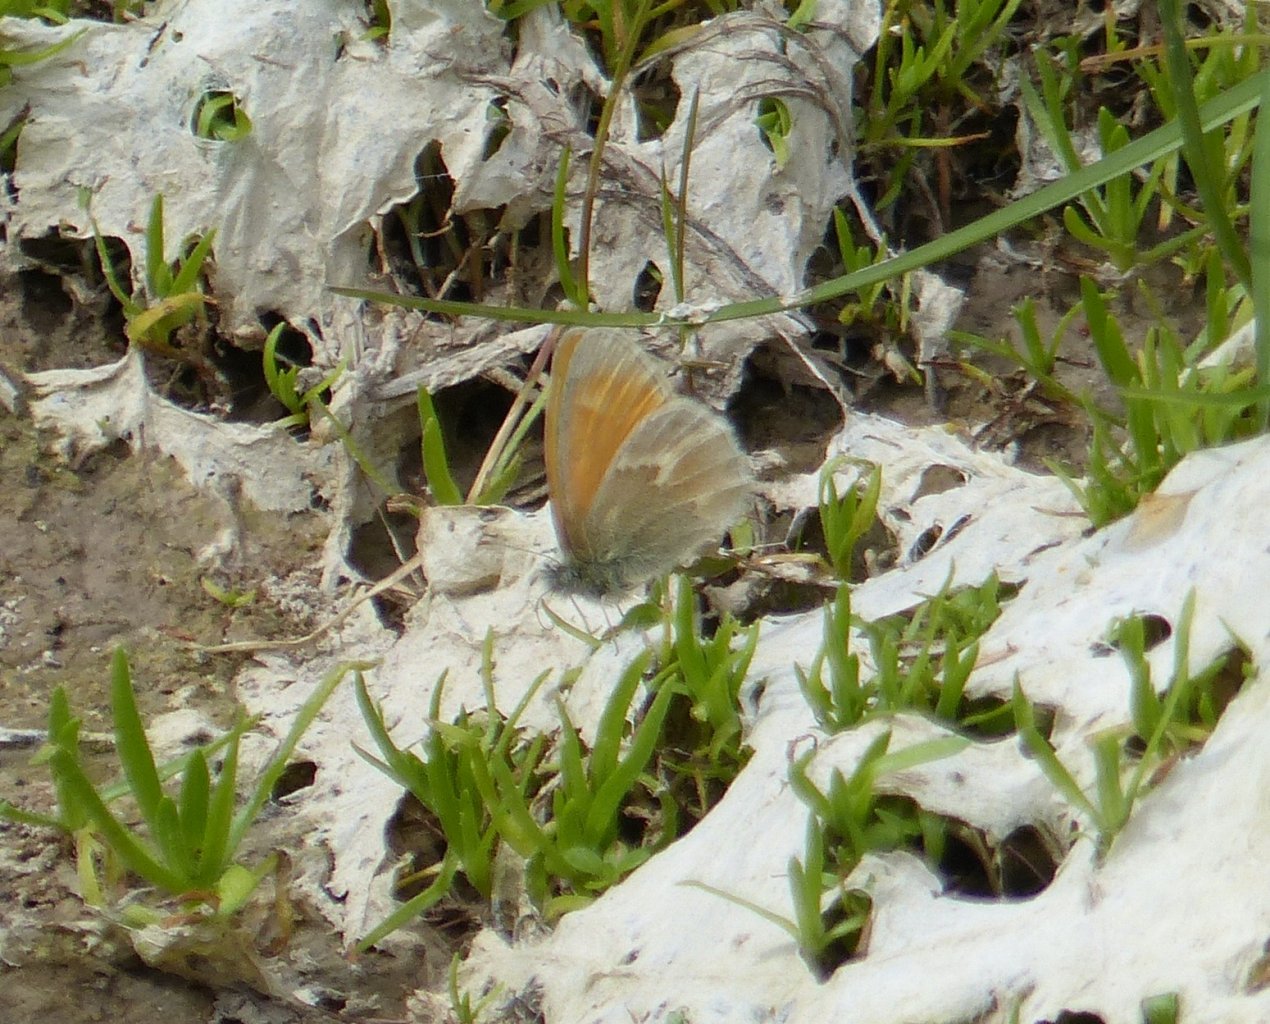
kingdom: Animalia
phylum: Arthropoda
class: Insecta
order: Lepidoptera
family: Nymphalidae
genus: Coenonympha
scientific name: Coenonympha tullia
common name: Large Heath
